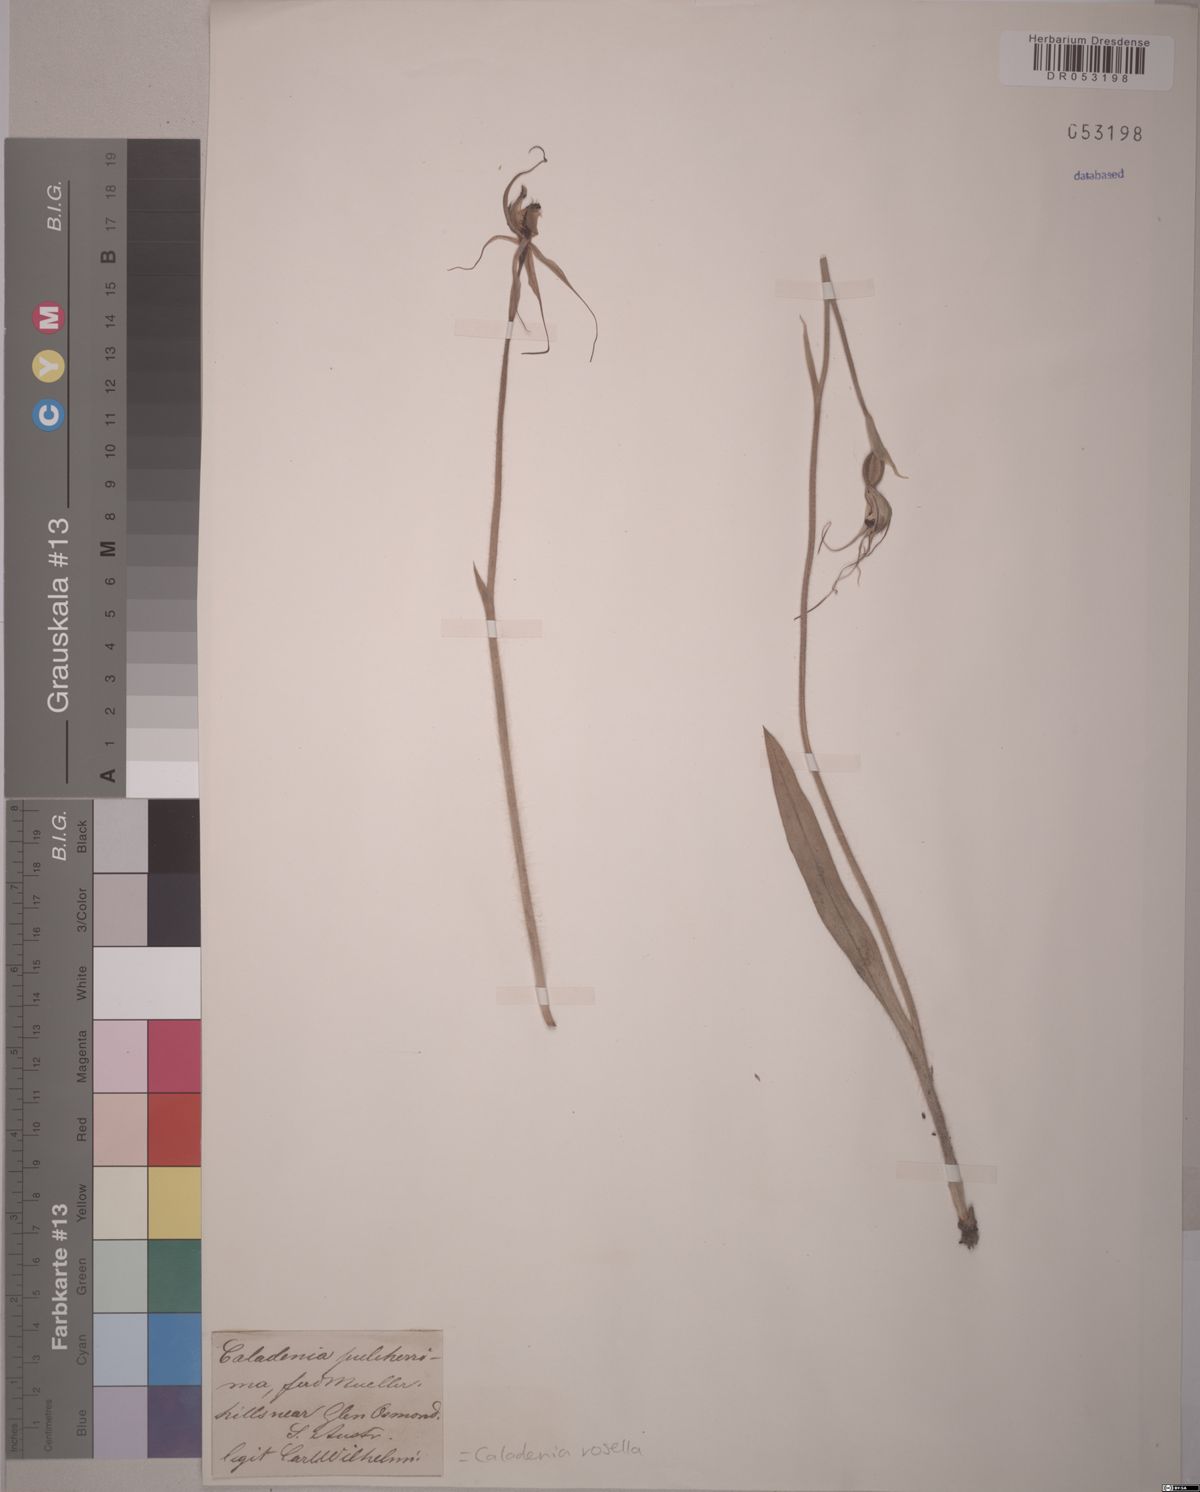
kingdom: Plantae
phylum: Tracheophyta
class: Liliopsida
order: Asparagales
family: Orchidaceae
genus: Caladenia
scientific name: Caladenia rosella
